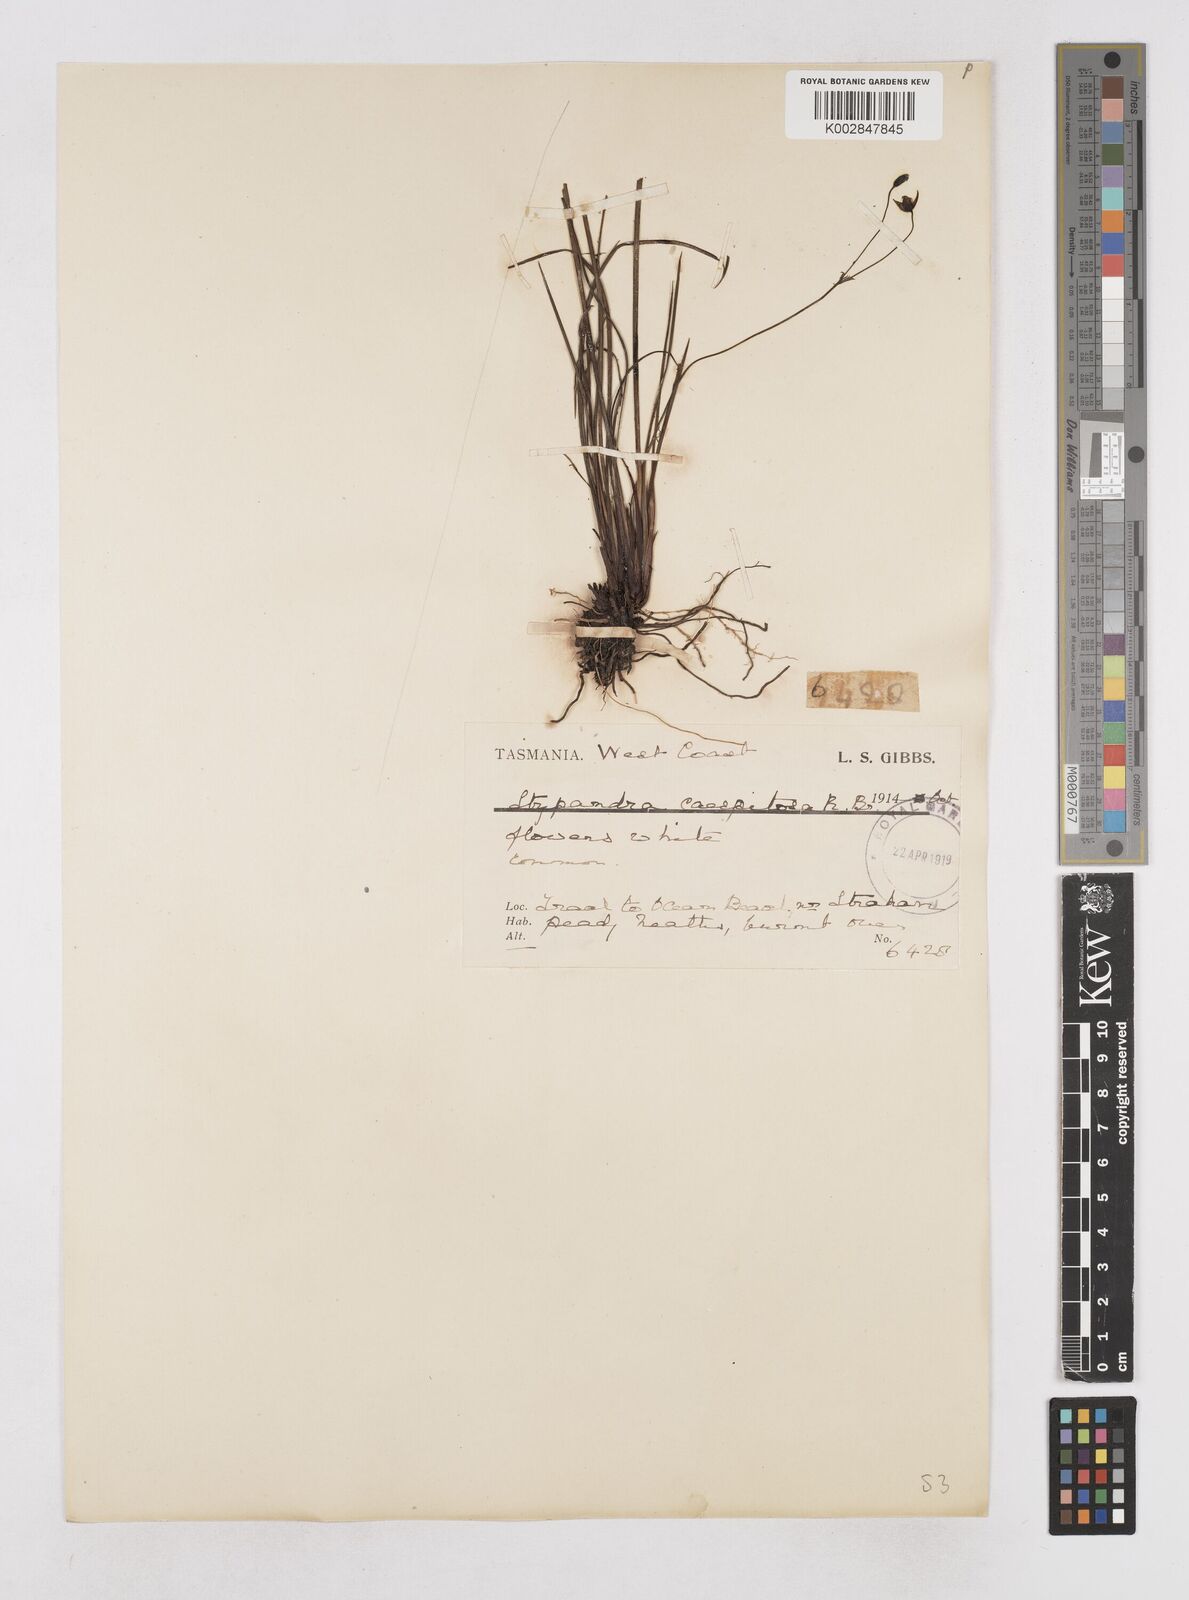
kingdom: Plantae
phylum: Tracheophyta
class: Liliopsida
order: Asparagales
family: Asphodelaceae
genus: Thelionema
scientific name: Thelionema caespitosum
